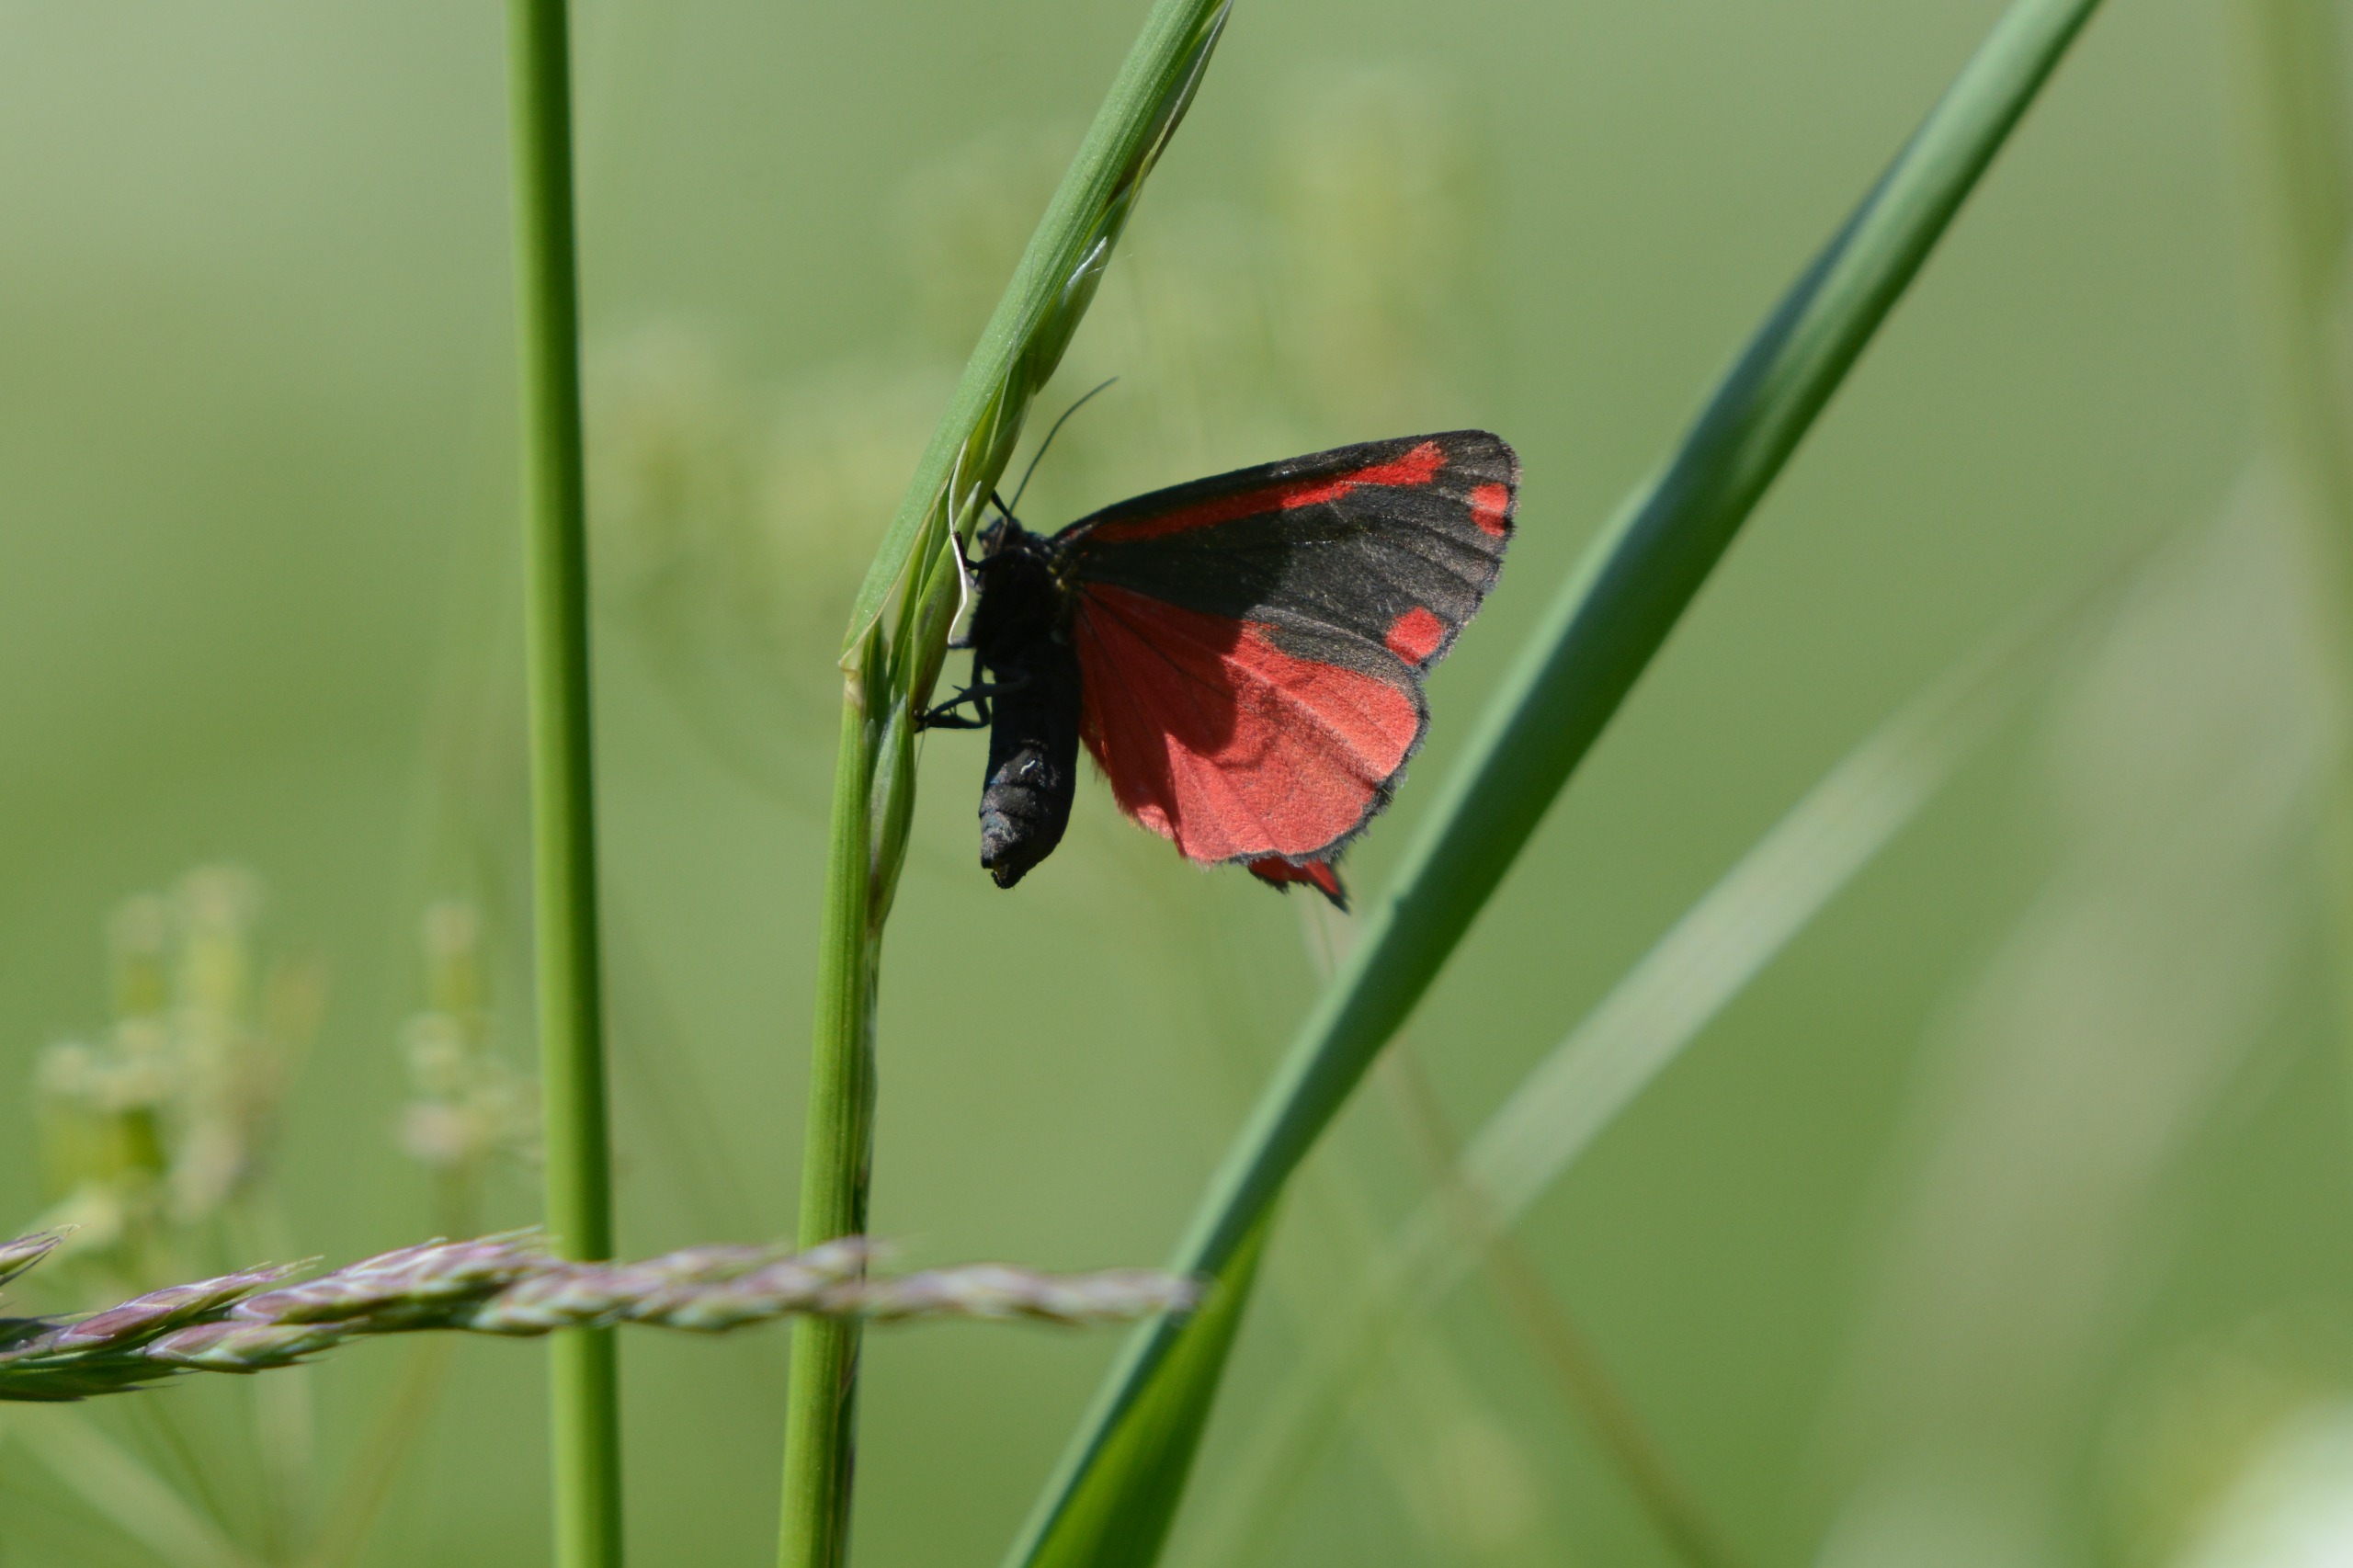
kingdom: Animalia
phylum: Arthropoda
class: Insecta
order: Lepidoptera
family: Erebidae
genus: Tyria
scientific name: Tyria jacobaeae
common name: Blodplet
